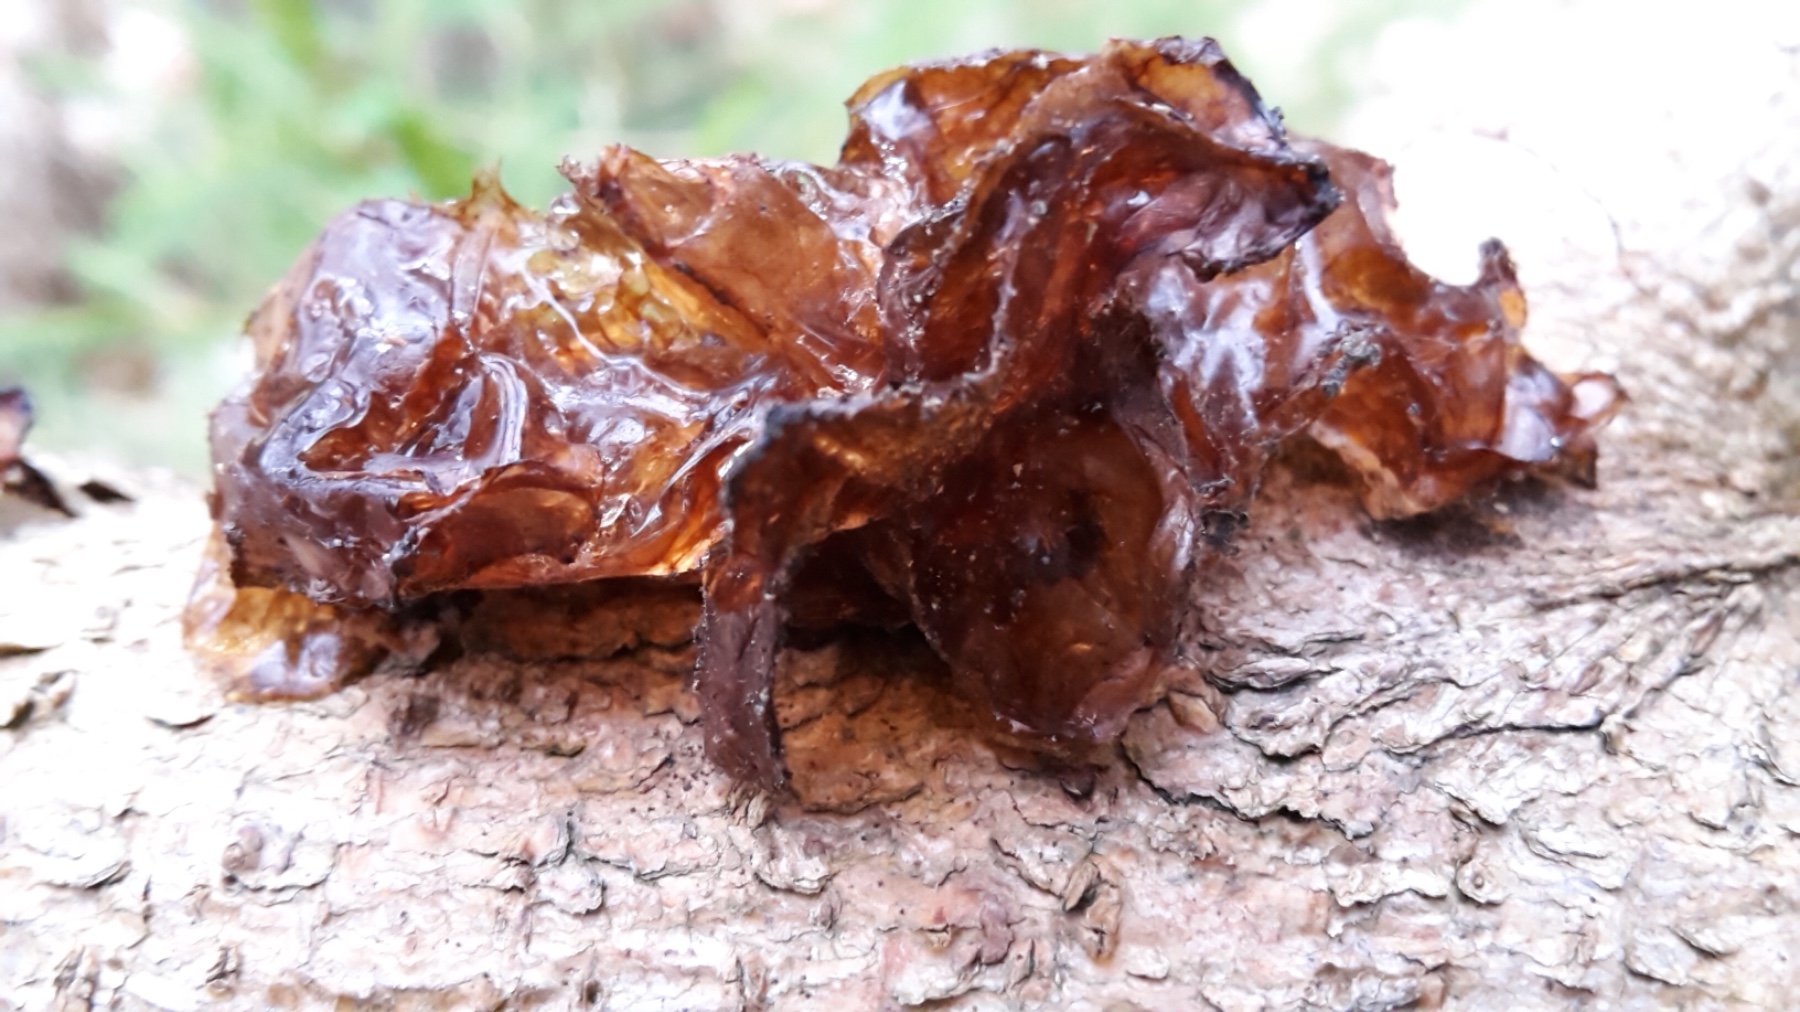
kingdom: Fungi
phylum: Basidiomycota
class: Agaricomycetes
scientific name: Agaricomycetes
